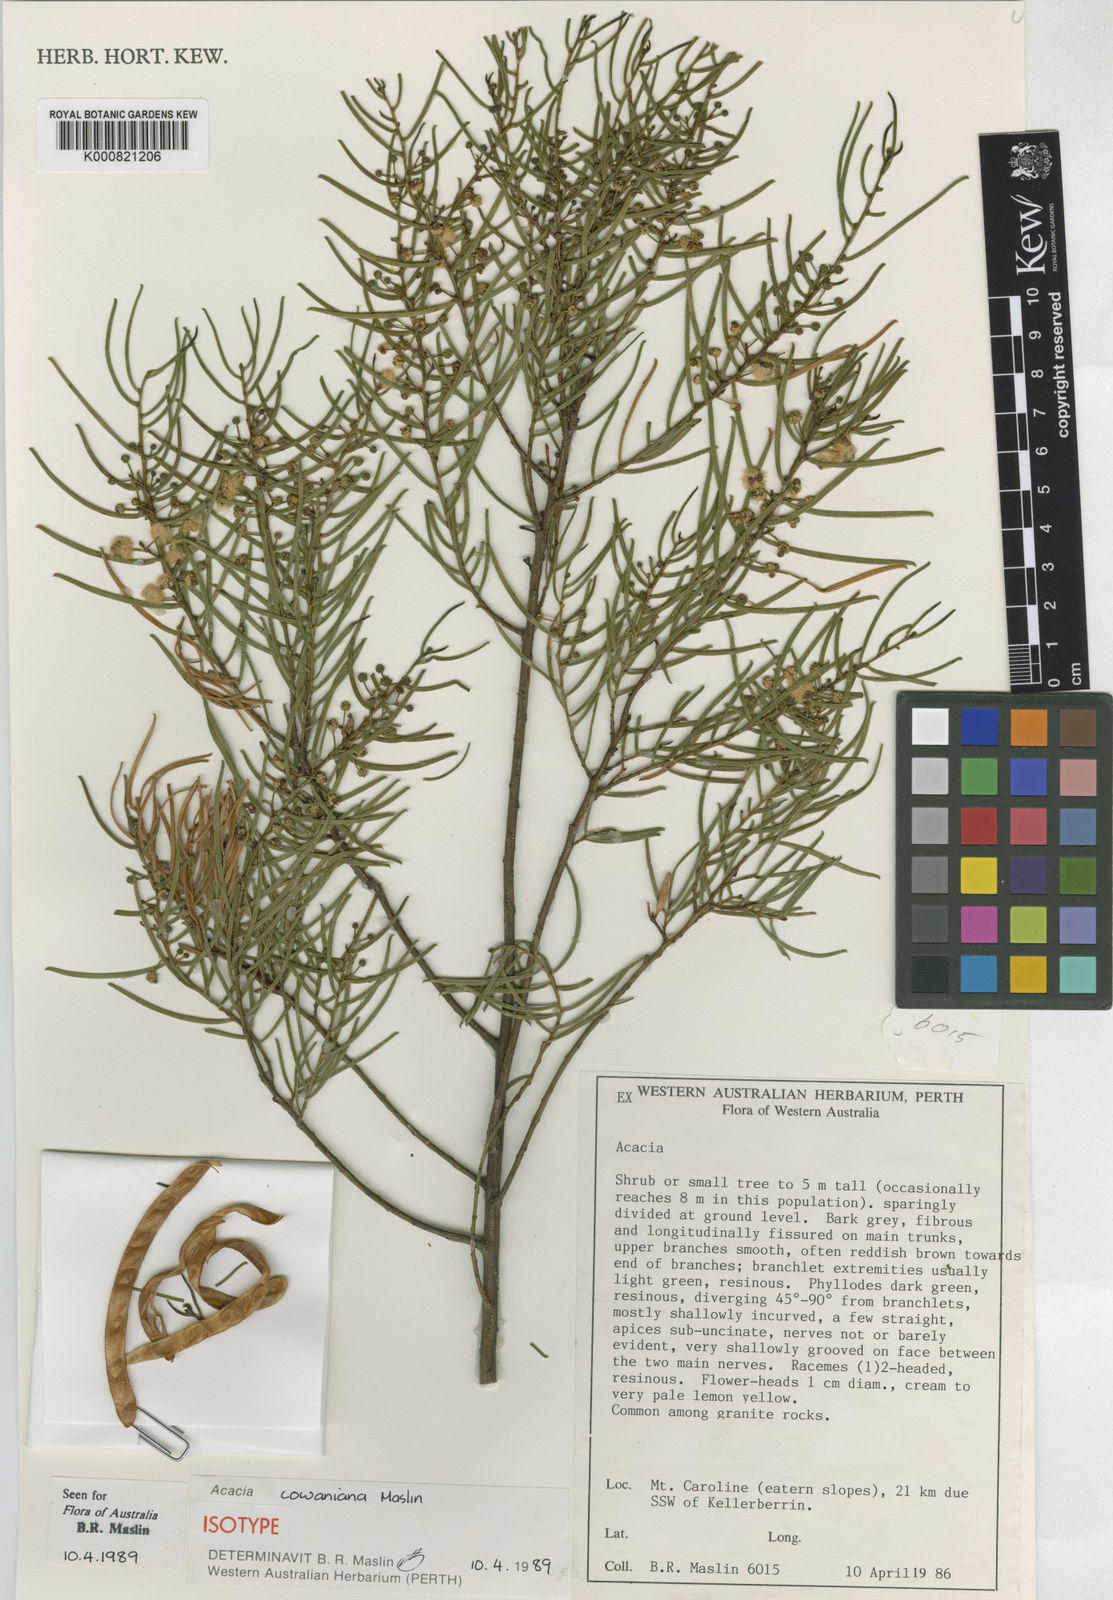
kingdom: Plantae
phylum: Tracheophyta
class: Magnoliopsida
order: Fabales
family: Fabaceae
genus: Acacia
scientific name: Acacia cowaniana
